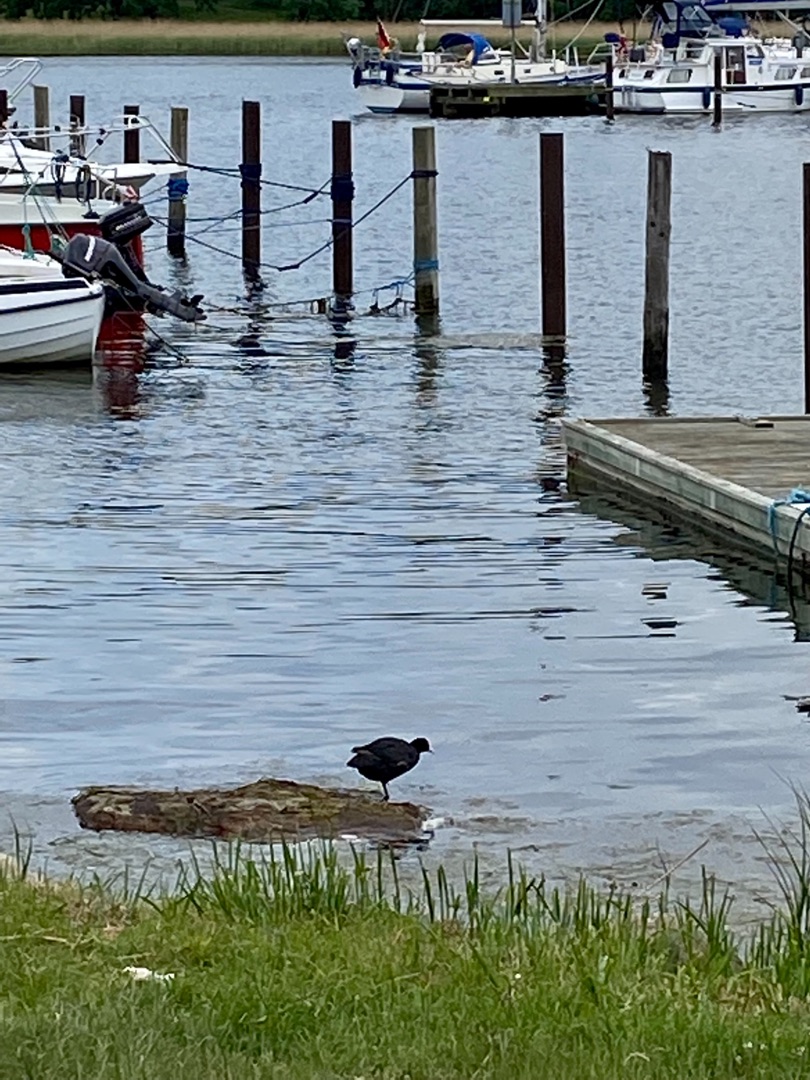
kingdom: Animalia
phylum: Chordata
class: Aves
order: Gruiformes
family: Rallidae
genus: Fulica
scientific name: Fulica atra
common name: Blishøne
